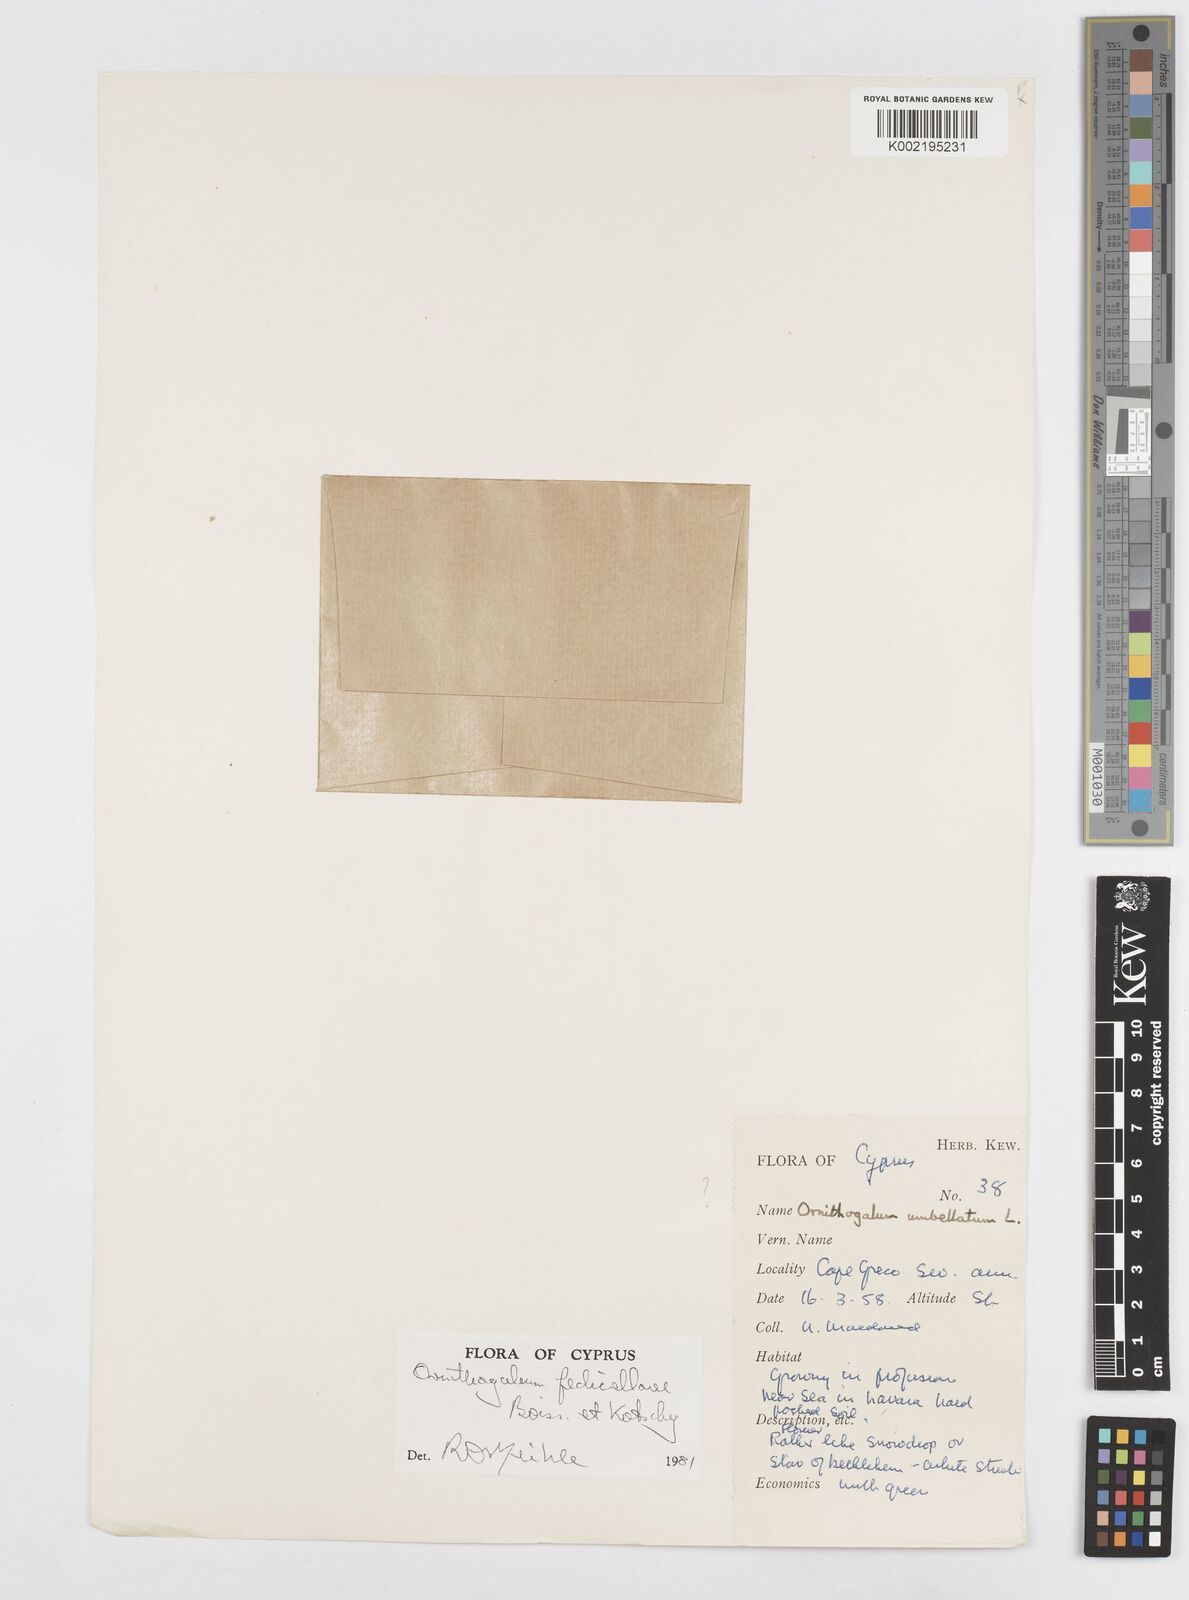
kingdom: Plantae
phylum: Tracheophyta
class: Liliopsida
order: Asparagales
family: Asparagaceae
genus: Ornithogalum
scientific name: Ornithogalum
